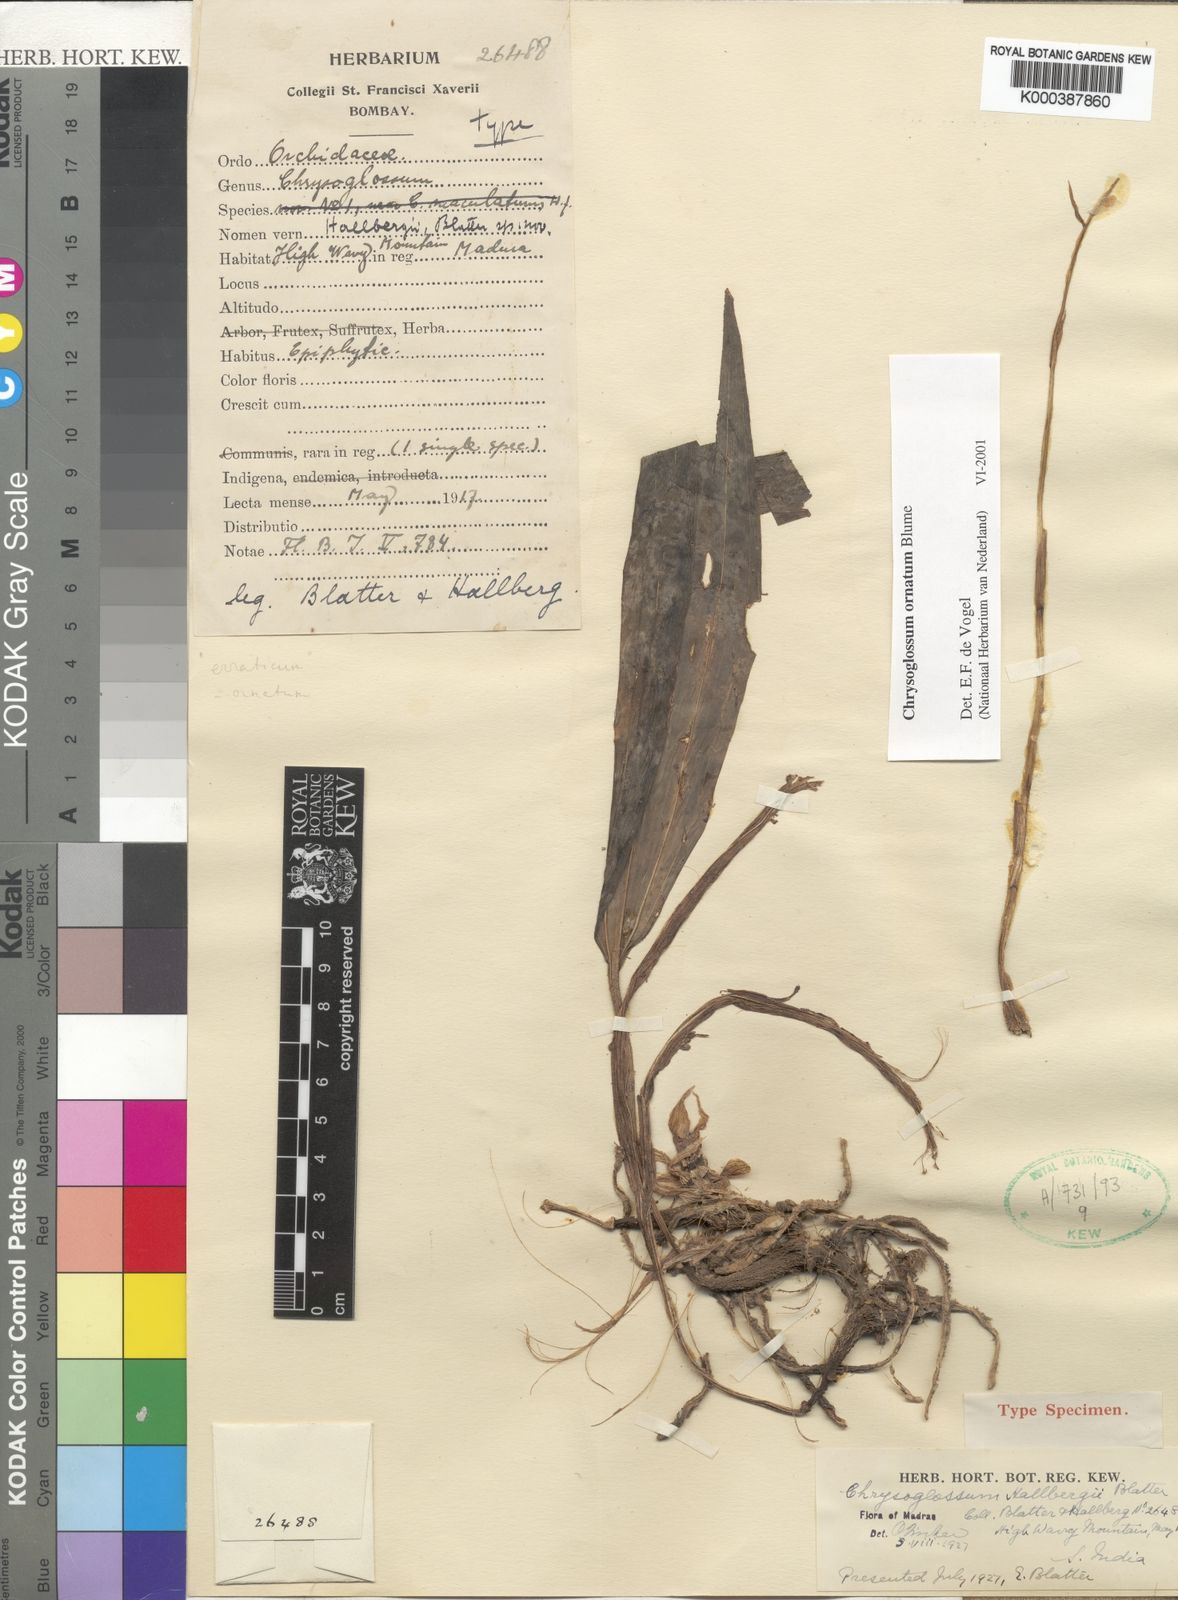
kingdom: Plantae
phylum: Tracheophyta
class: Liliopsida
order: Asparagales
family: Orchidaceae
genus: Chrysoglossum
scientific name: Chrysoglossum ornatum
